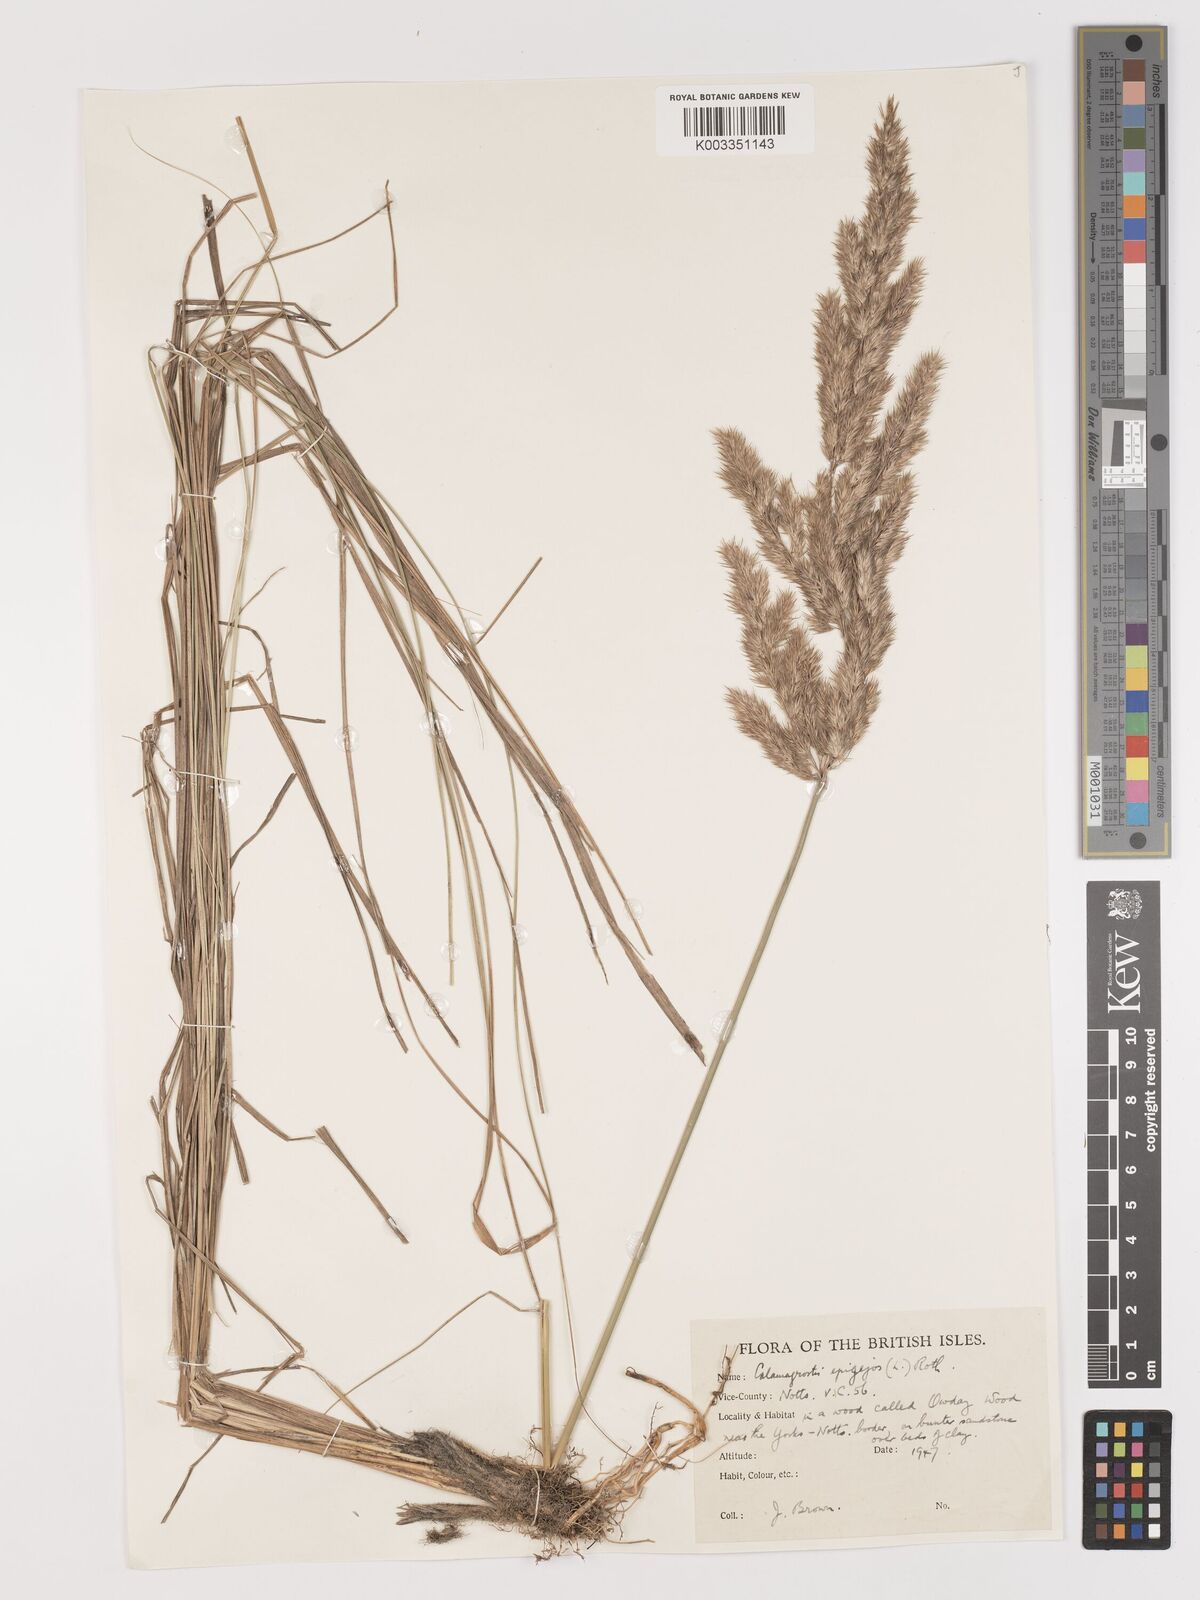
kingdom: Plantae
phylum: Tracheophyta
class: Liliopsida
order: Poales
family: Poaceae
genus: Calamagrostis
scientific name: Calamagrostis
